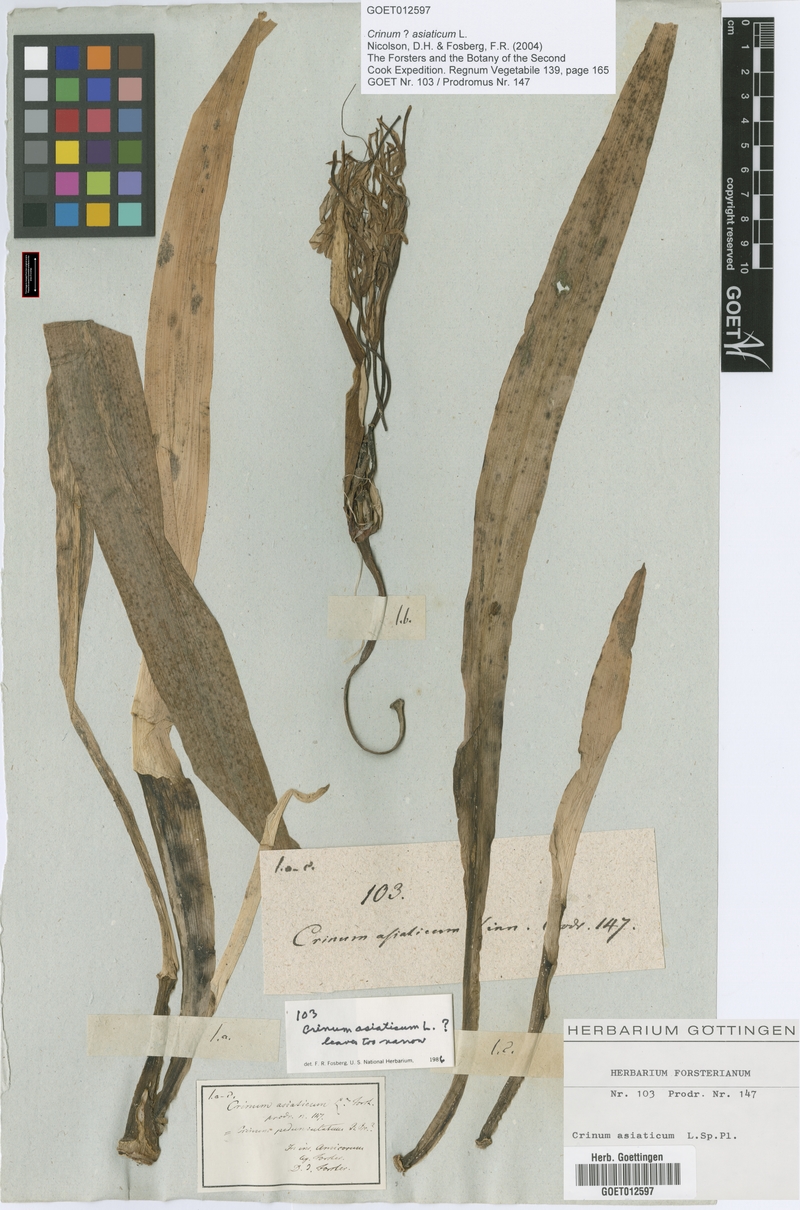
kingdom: Plantae
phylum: Tracheophyta
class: Liliopsida
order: Asparagales
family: Amaryllidaceae
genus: Crinum
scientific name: Crinum asiaticum
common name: Poisonbulb
